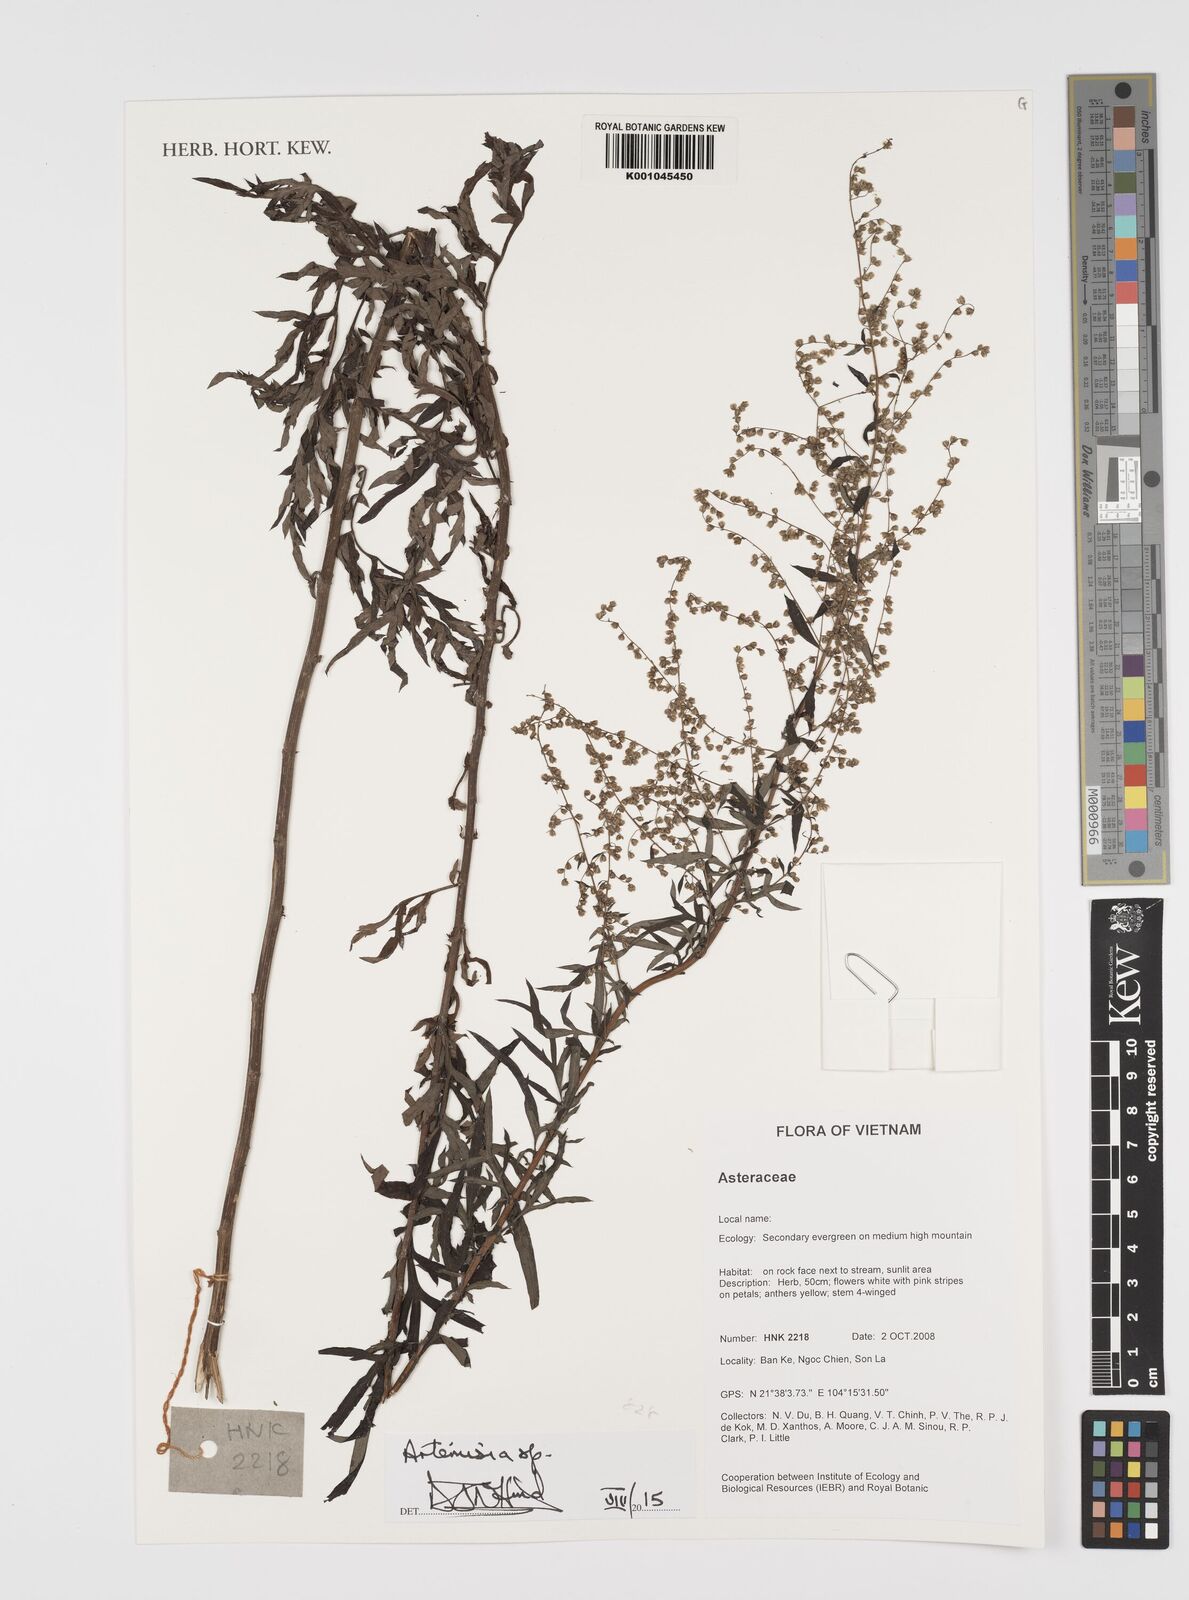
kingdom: Plantae
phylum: Tracheophyta
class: Magnoliopsida
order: Asterales
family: Asteraceae
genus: Artemisia
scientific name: Artemisia
